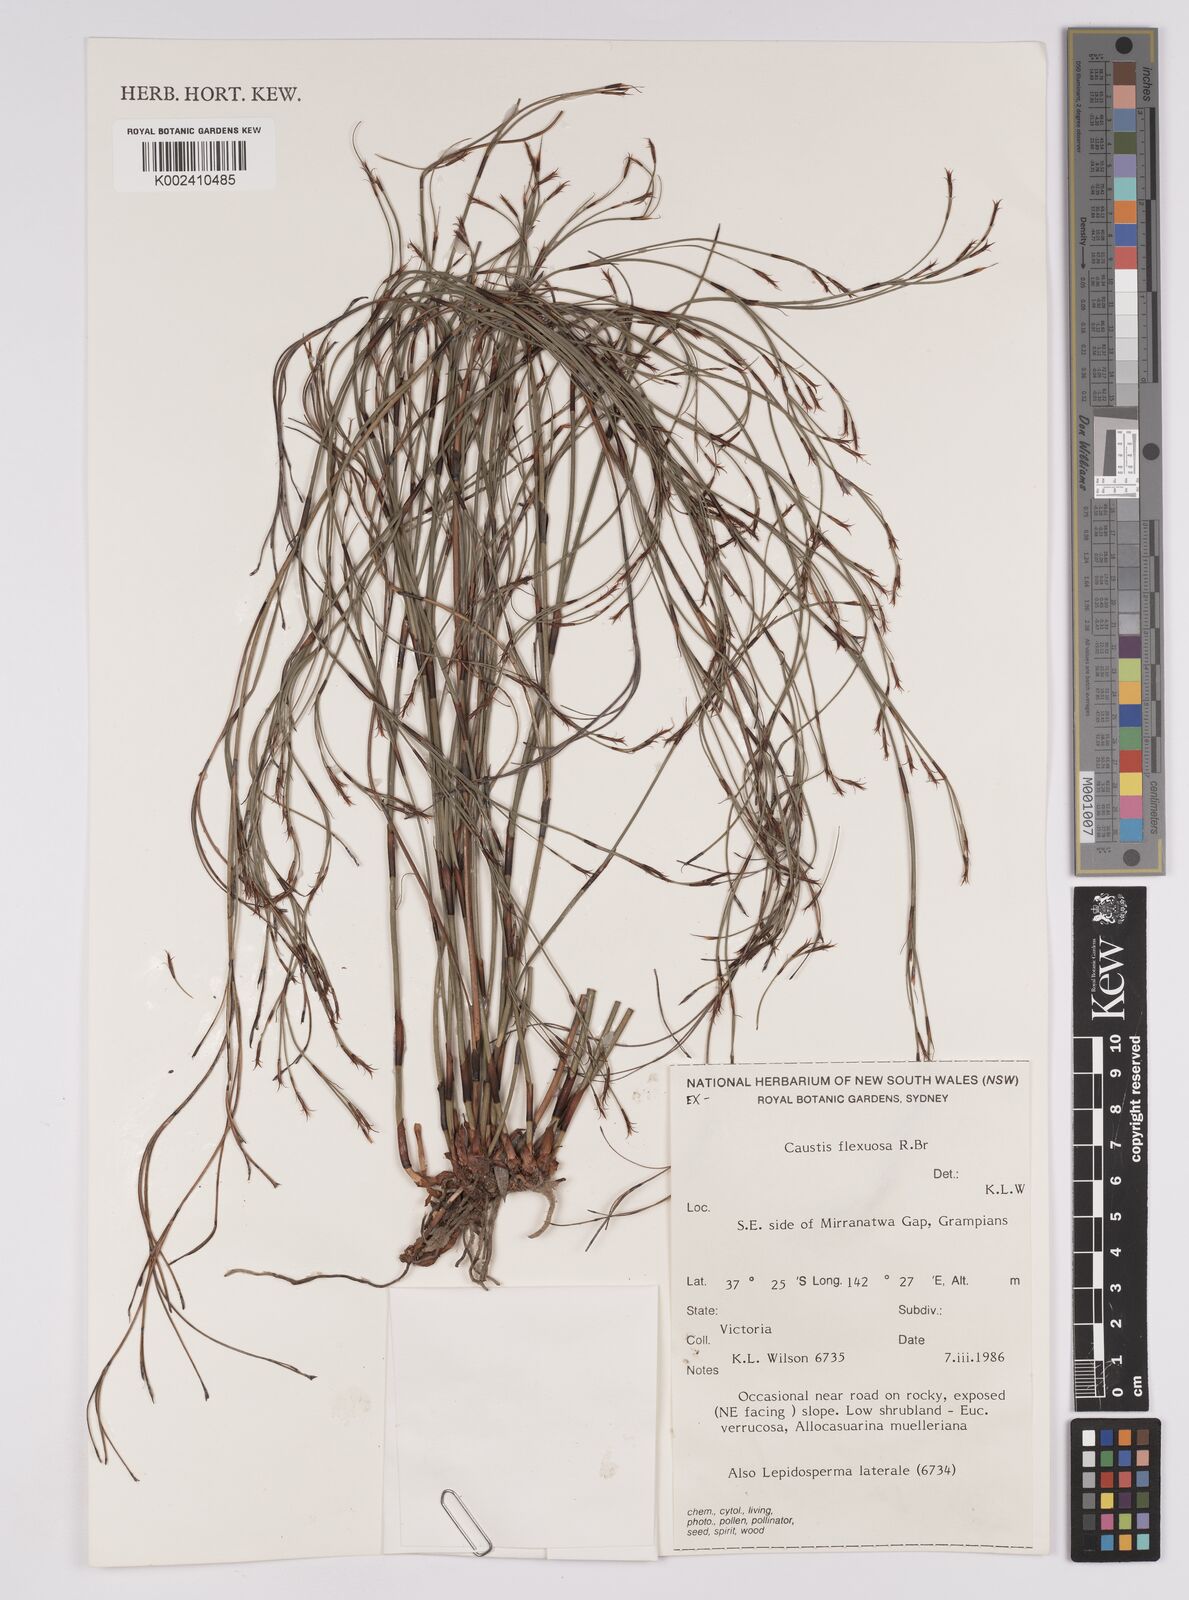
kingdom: Plantae
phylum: Tracheophyta
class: Liliopsida
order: Poales
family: Cyperaceae
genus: Caustis
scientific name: Caustis flexuosa
